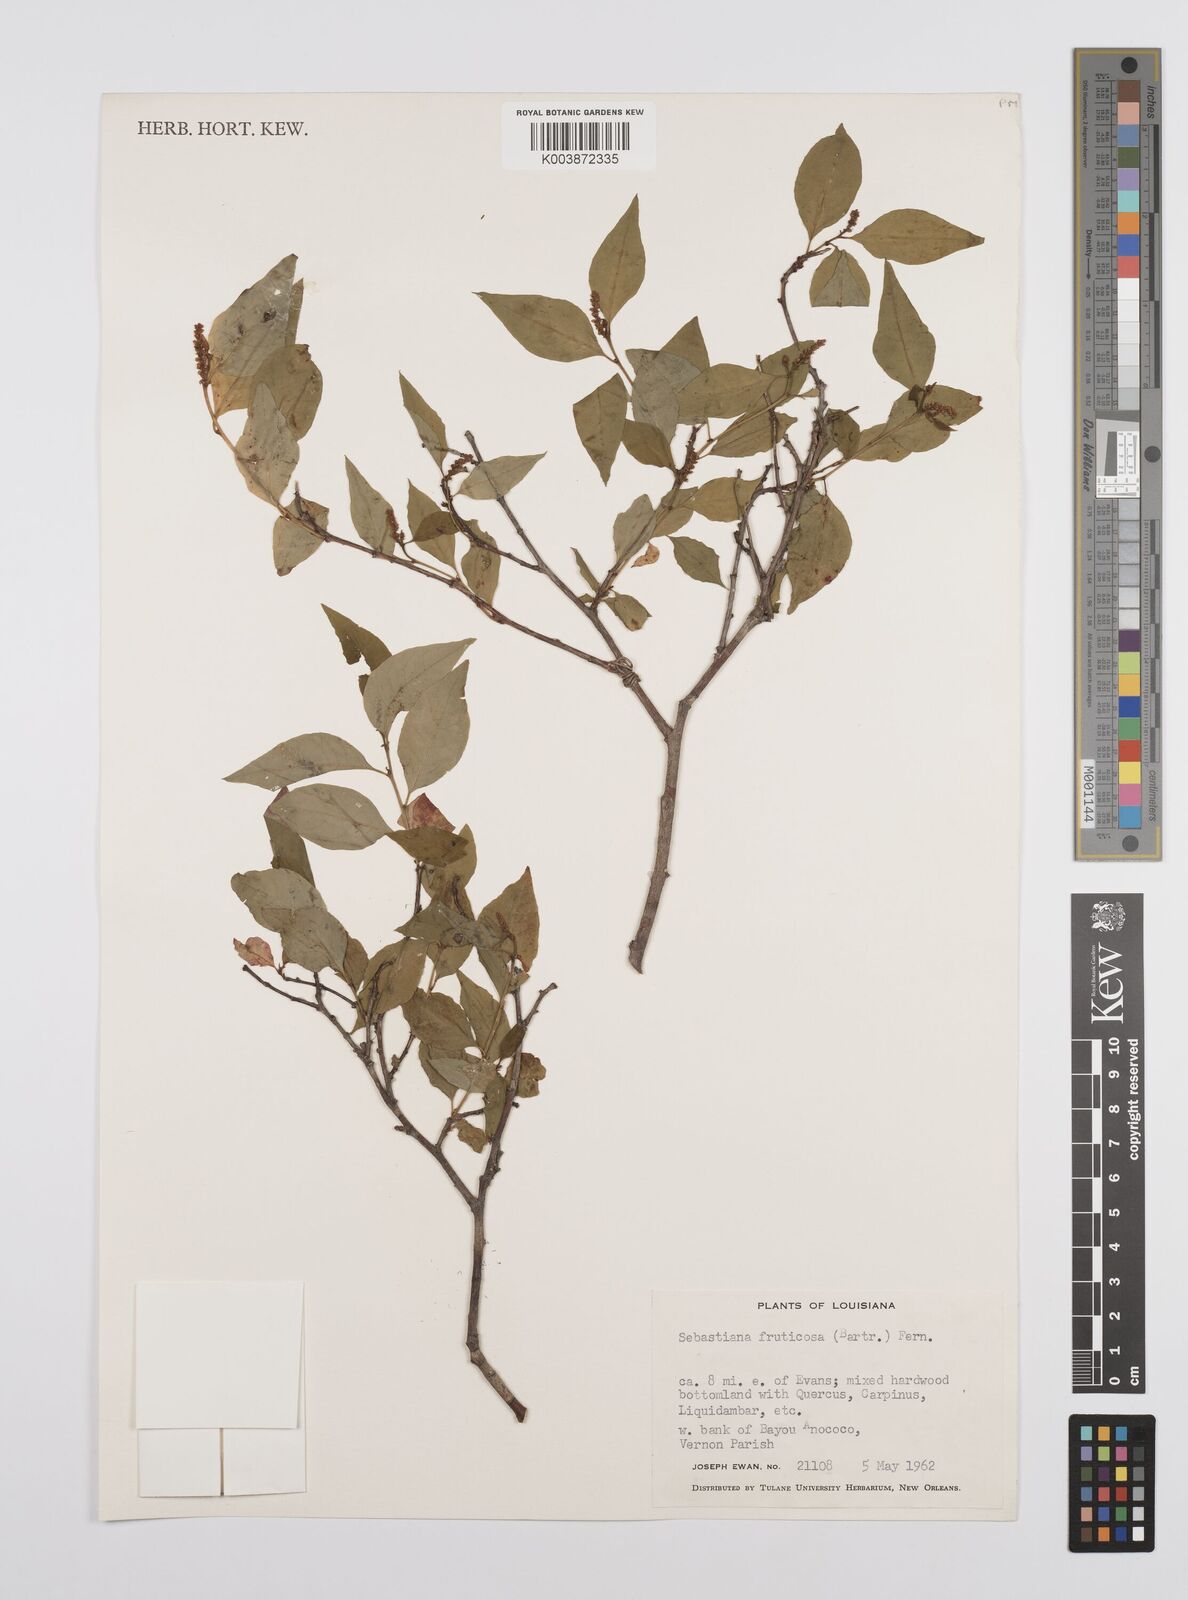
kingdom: Plantae
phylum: Tracheophyta
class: Magnoliopsida
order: Malpighiales
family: Euphorbiaceae
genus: Ditrysinia
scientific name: Ditrysinia fruticosa
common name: Gulf sebastian-bush
